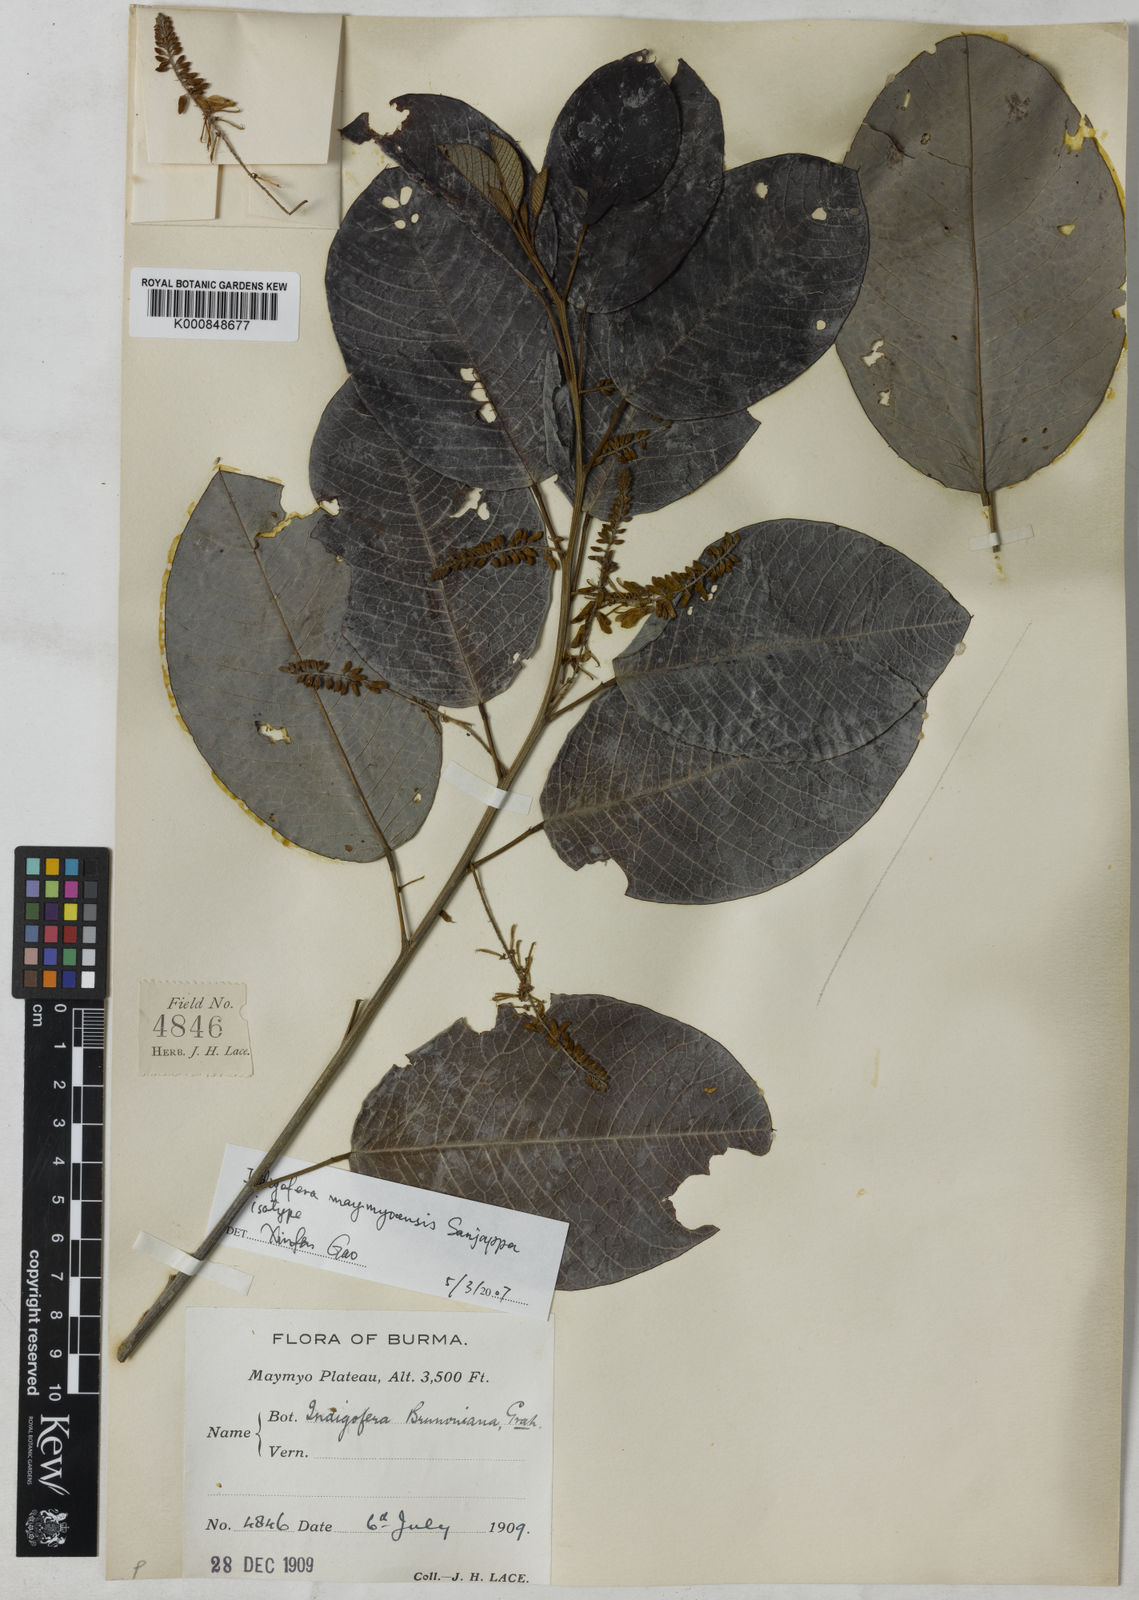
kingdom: Plantae
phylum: Tracheophyta
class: Magnoliopsida
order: Fabales
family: Fabaceae
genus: Indigofera
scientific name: Indigofera maymyoensis
